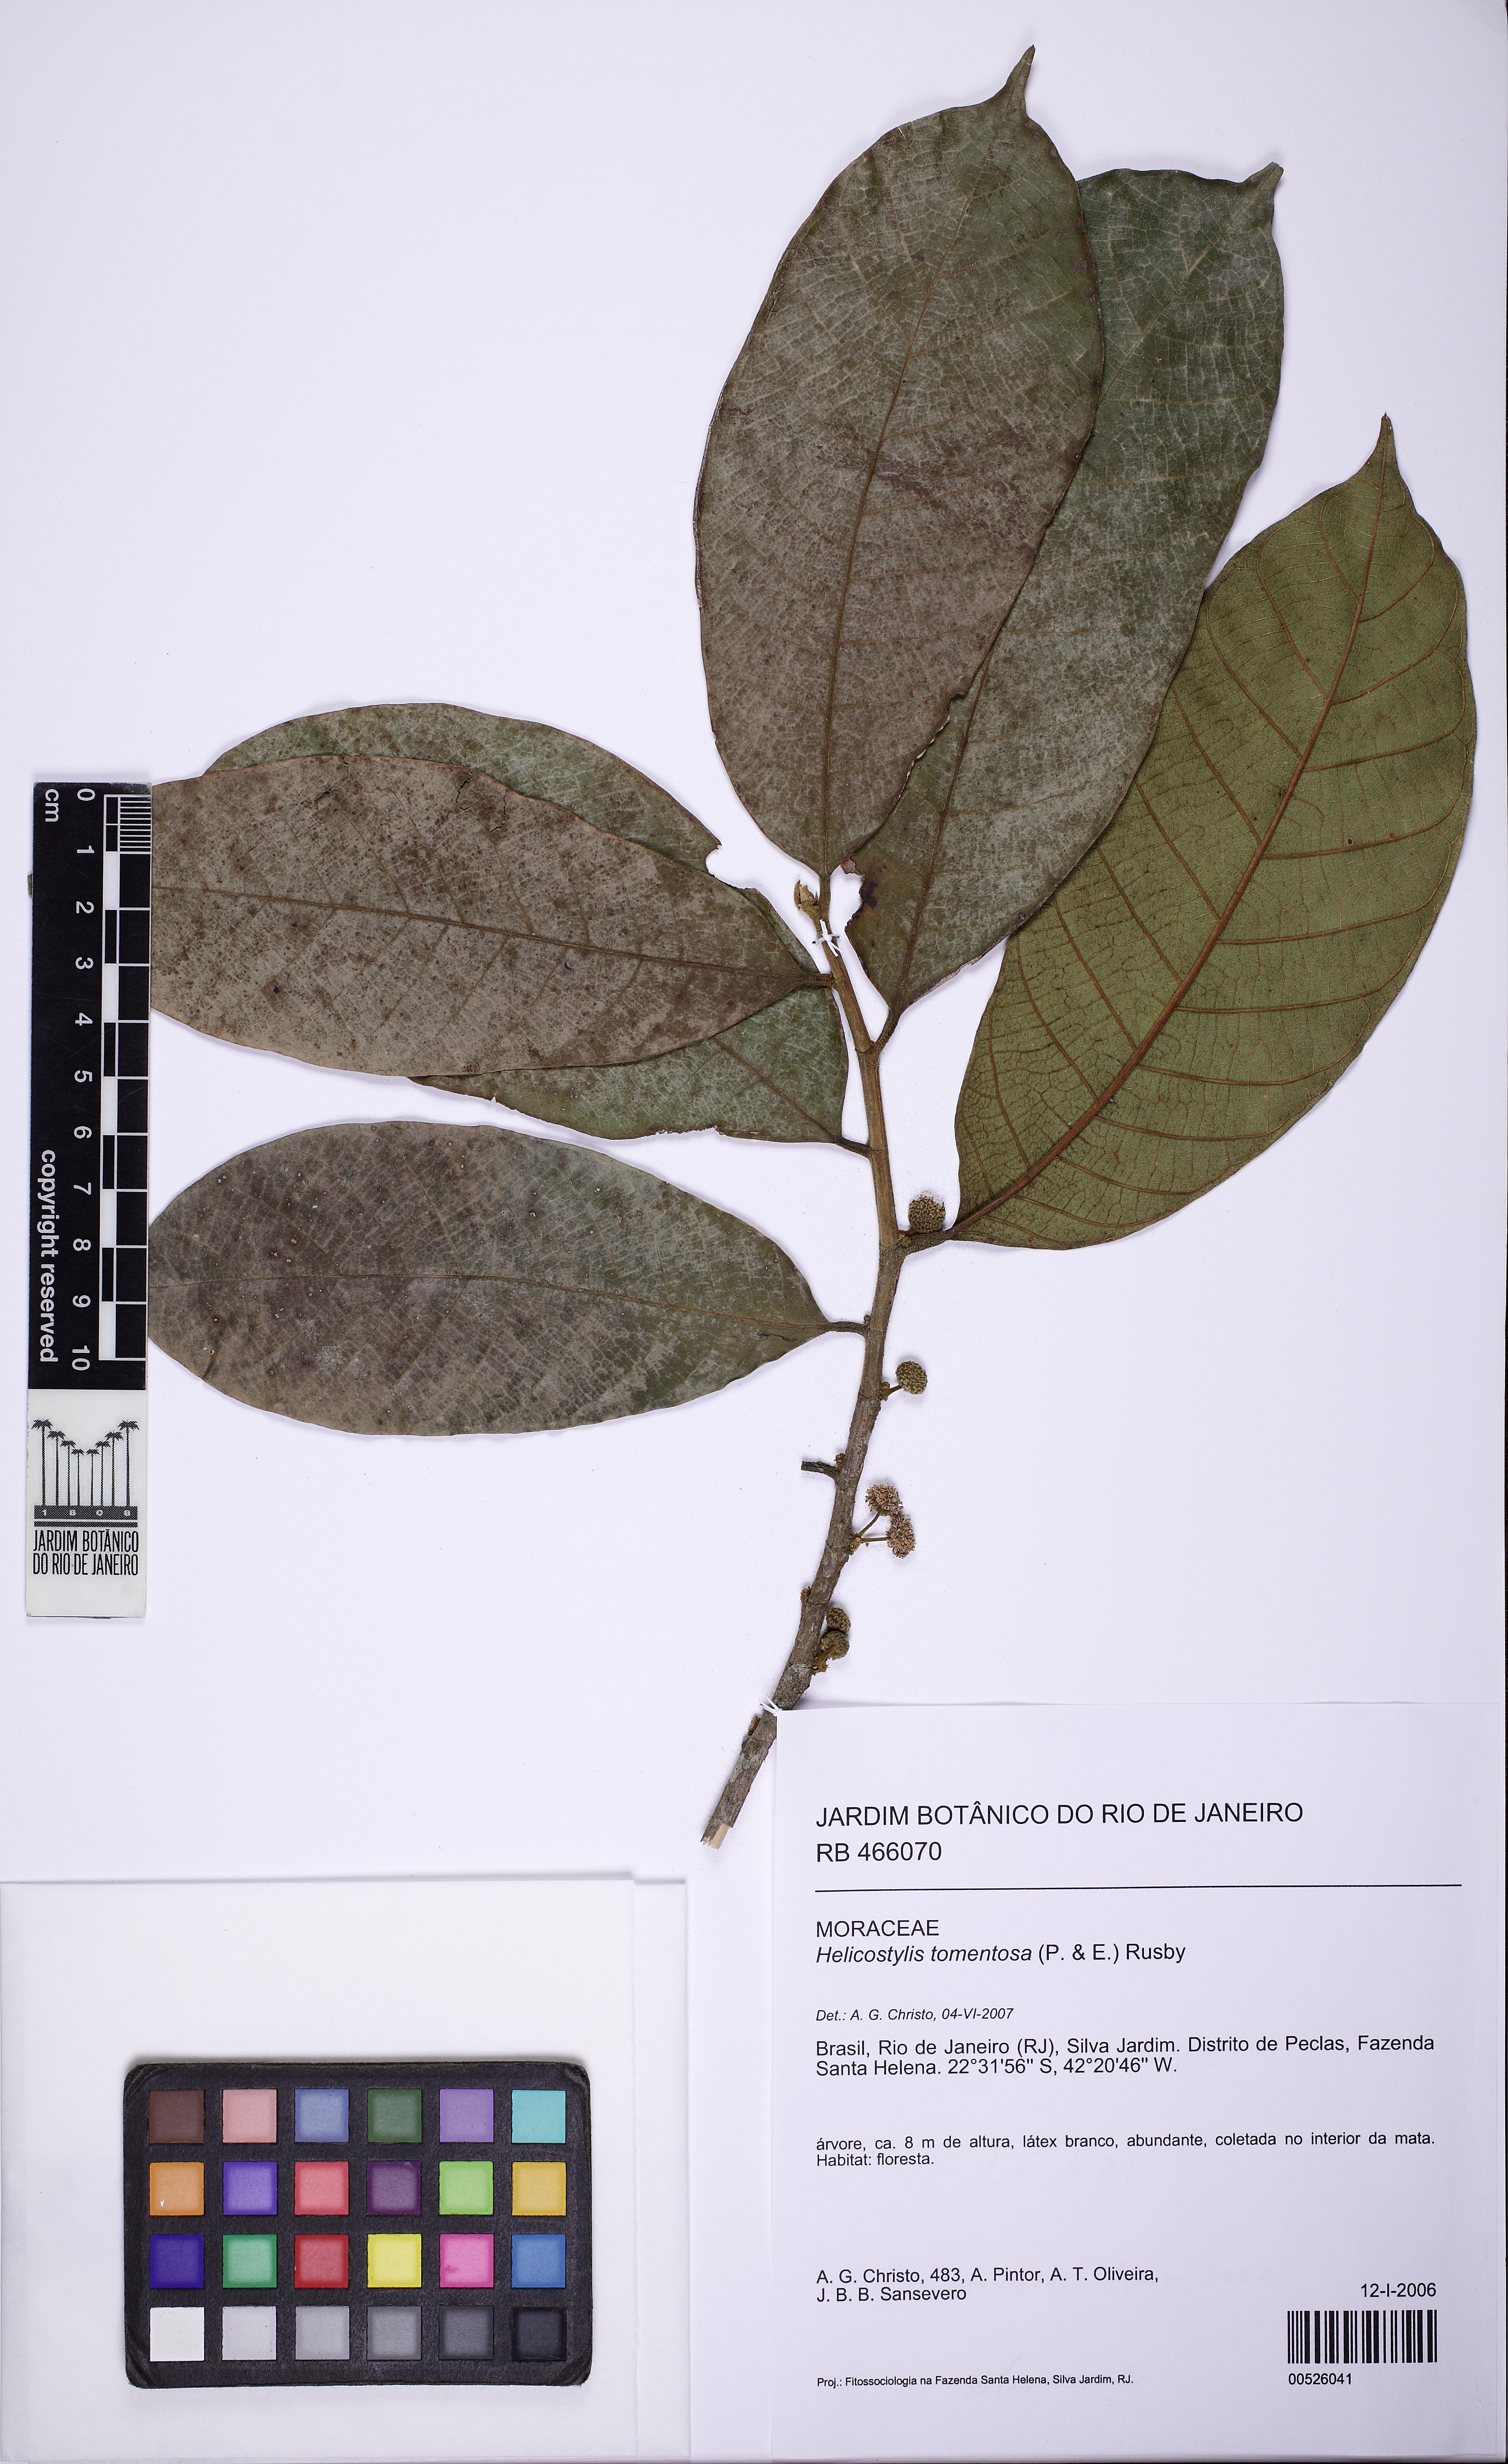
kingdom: Plantae
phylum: Tracheophyta
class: Magnoliopsida
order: Rosales
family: Moraceae
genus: Helicostylis
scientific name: Helicostylis tomentosa
